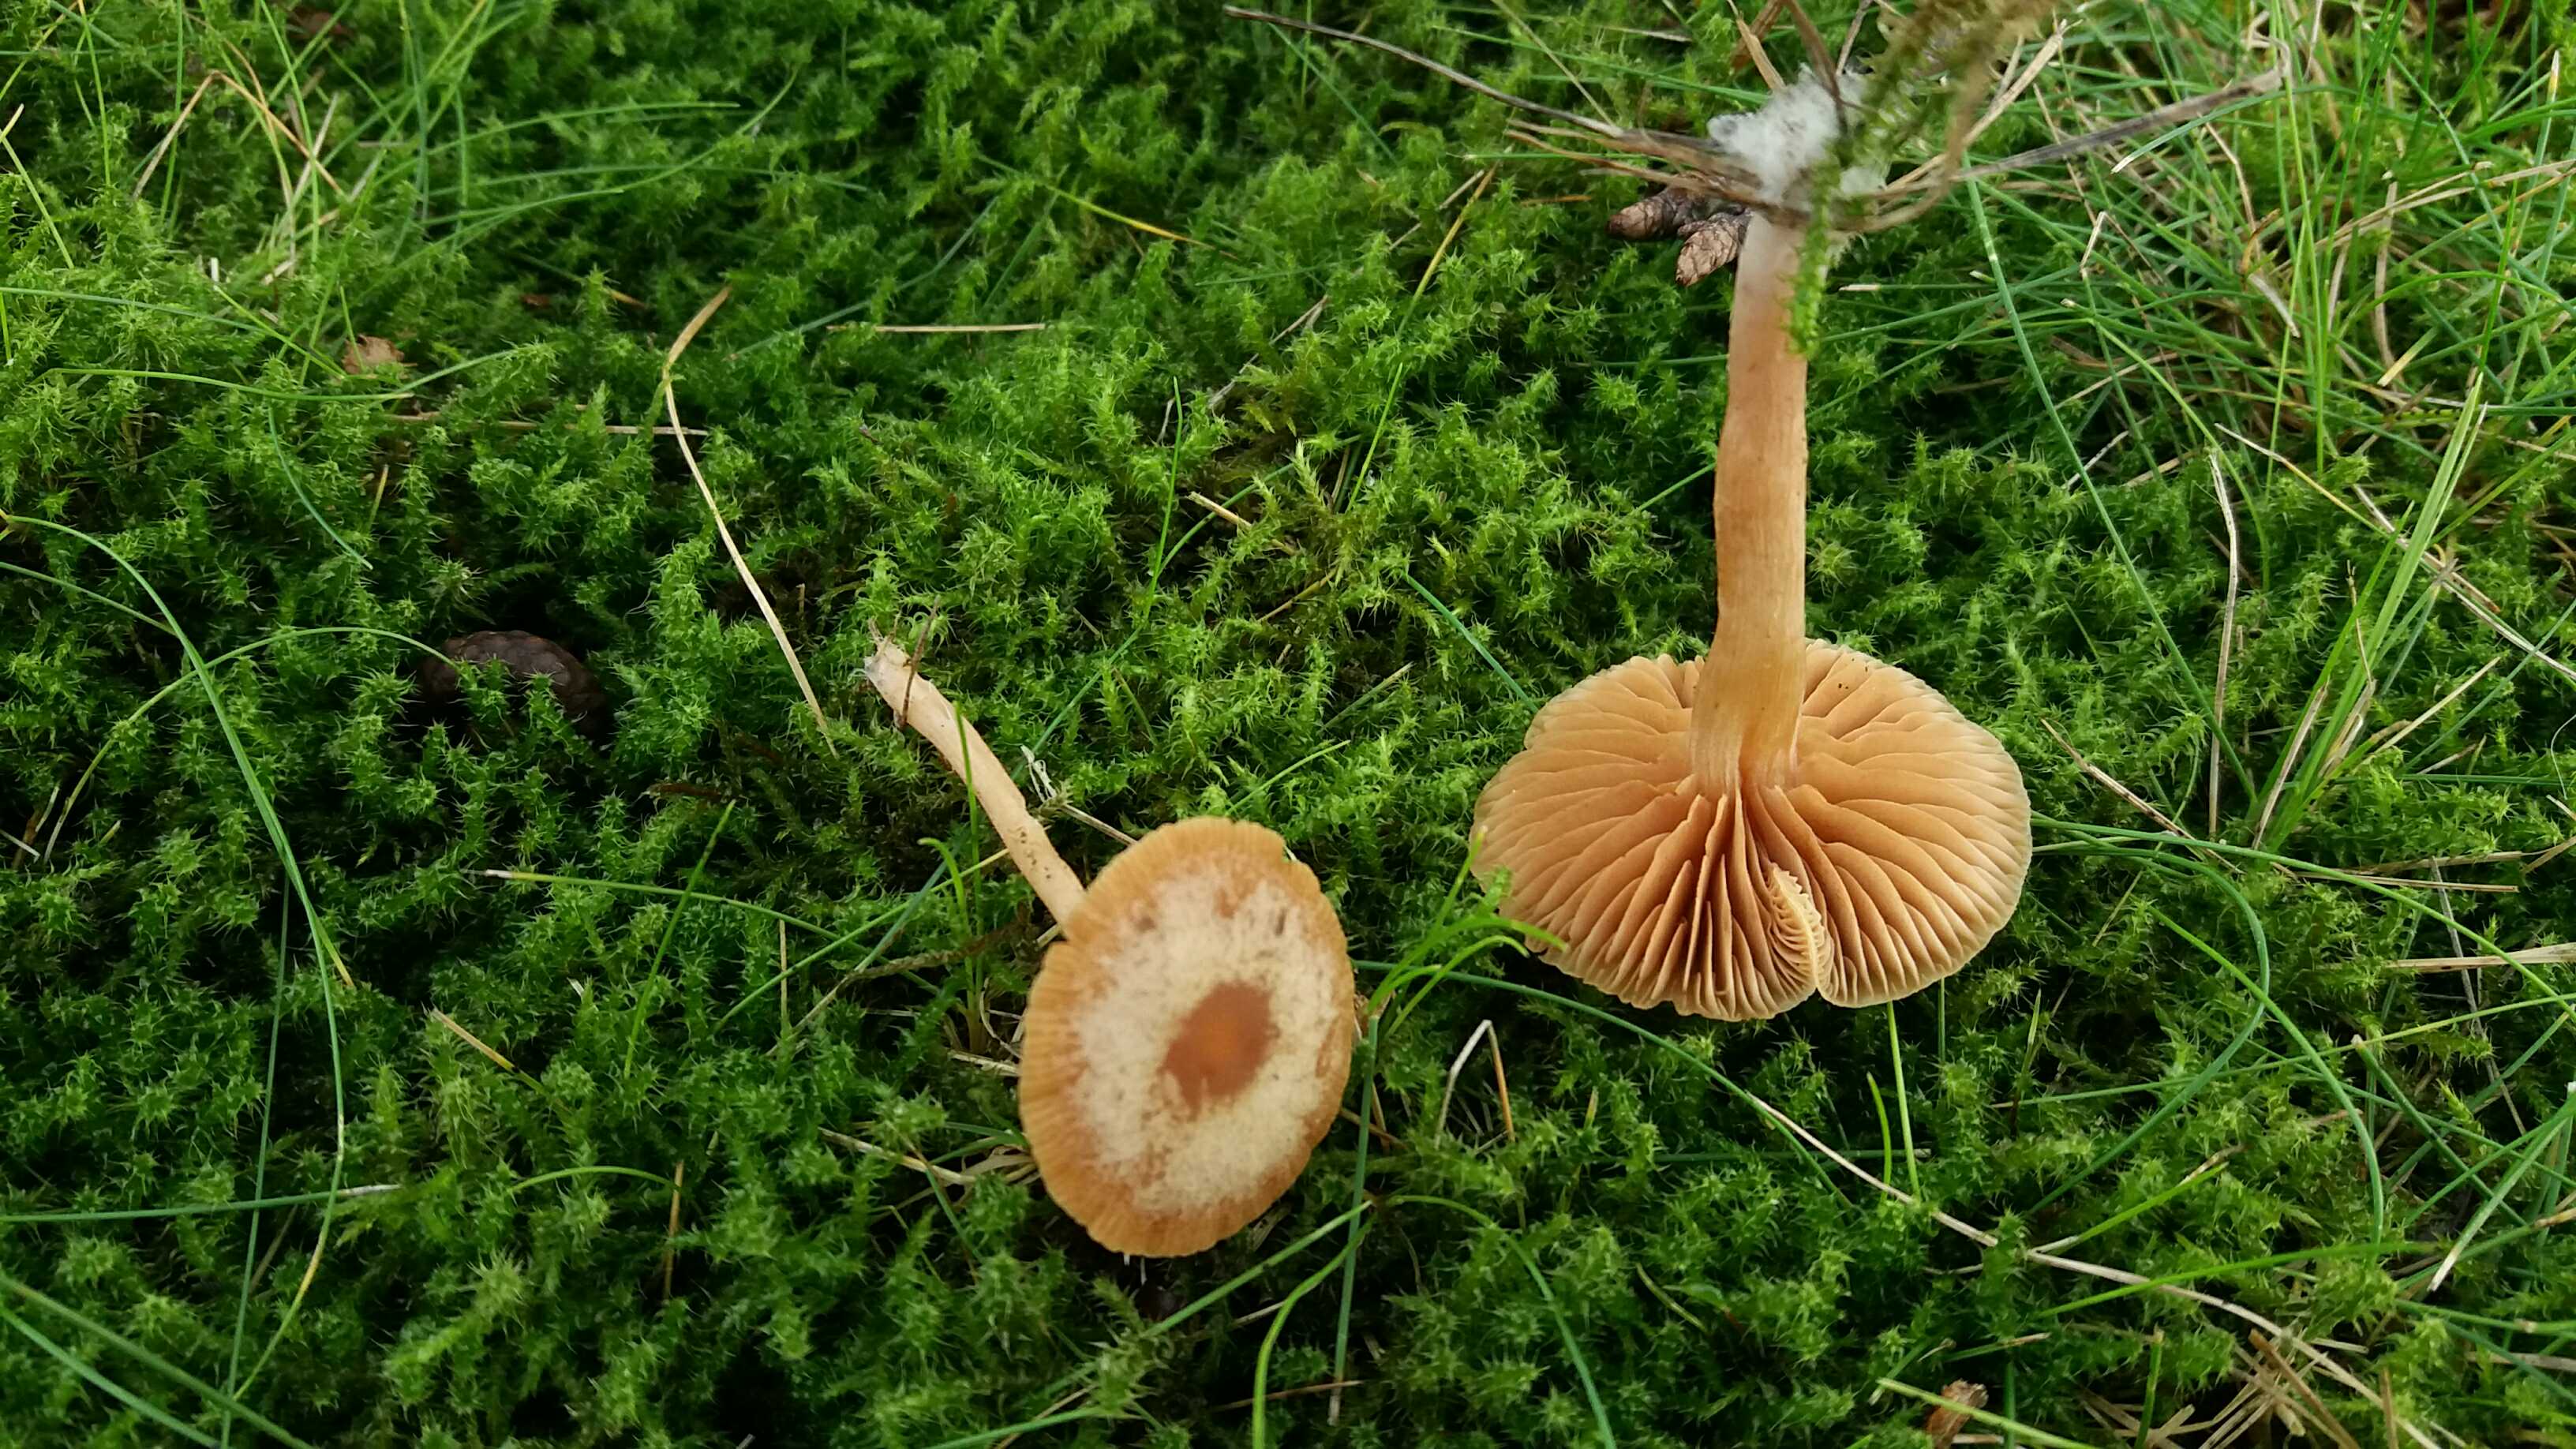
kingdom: Fungi
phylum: Basidiomycota
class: Agaricomycetes
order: Agaricales
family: Tubariaceae
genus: Tubaria
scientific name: Tubaria furfuracea
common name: kliddet fnughat
